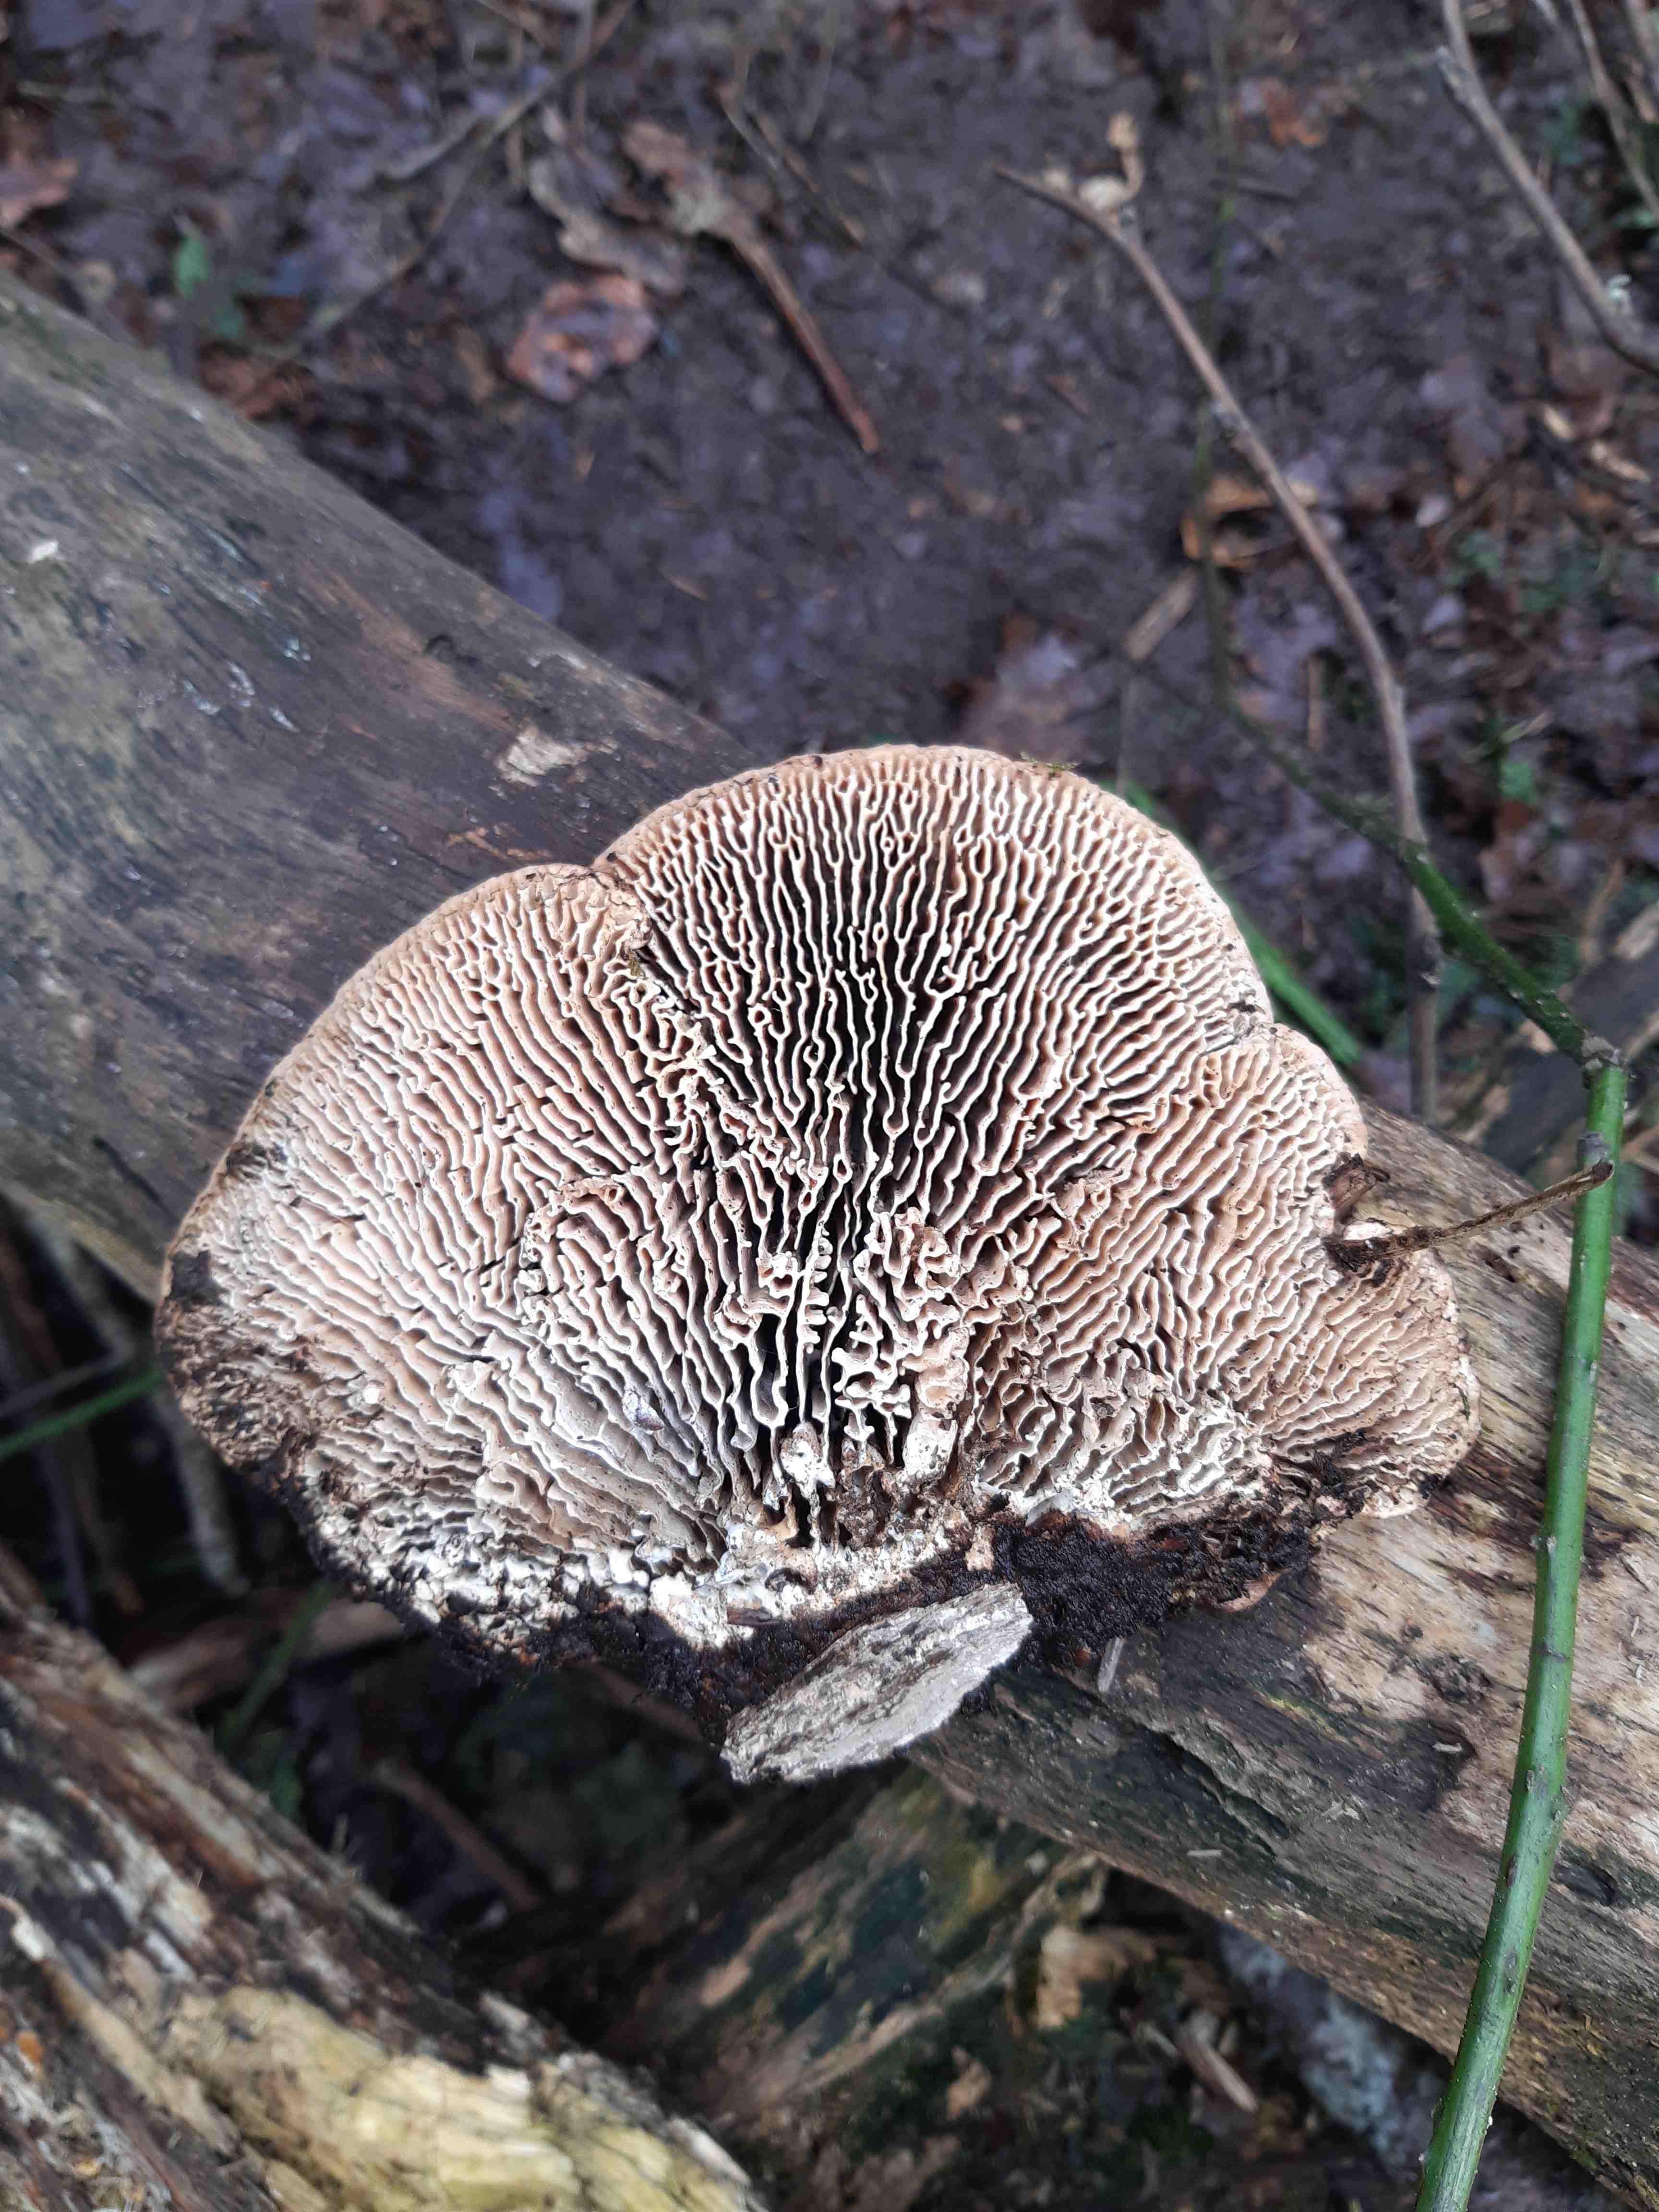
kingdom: Fungi
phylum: Basidiomycota
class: Agaricomycetes
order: Polyporales
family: Fomitopsidaceae
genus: Daedalea
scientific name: Daedalea quercina
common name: ege-labyrintsvamp
